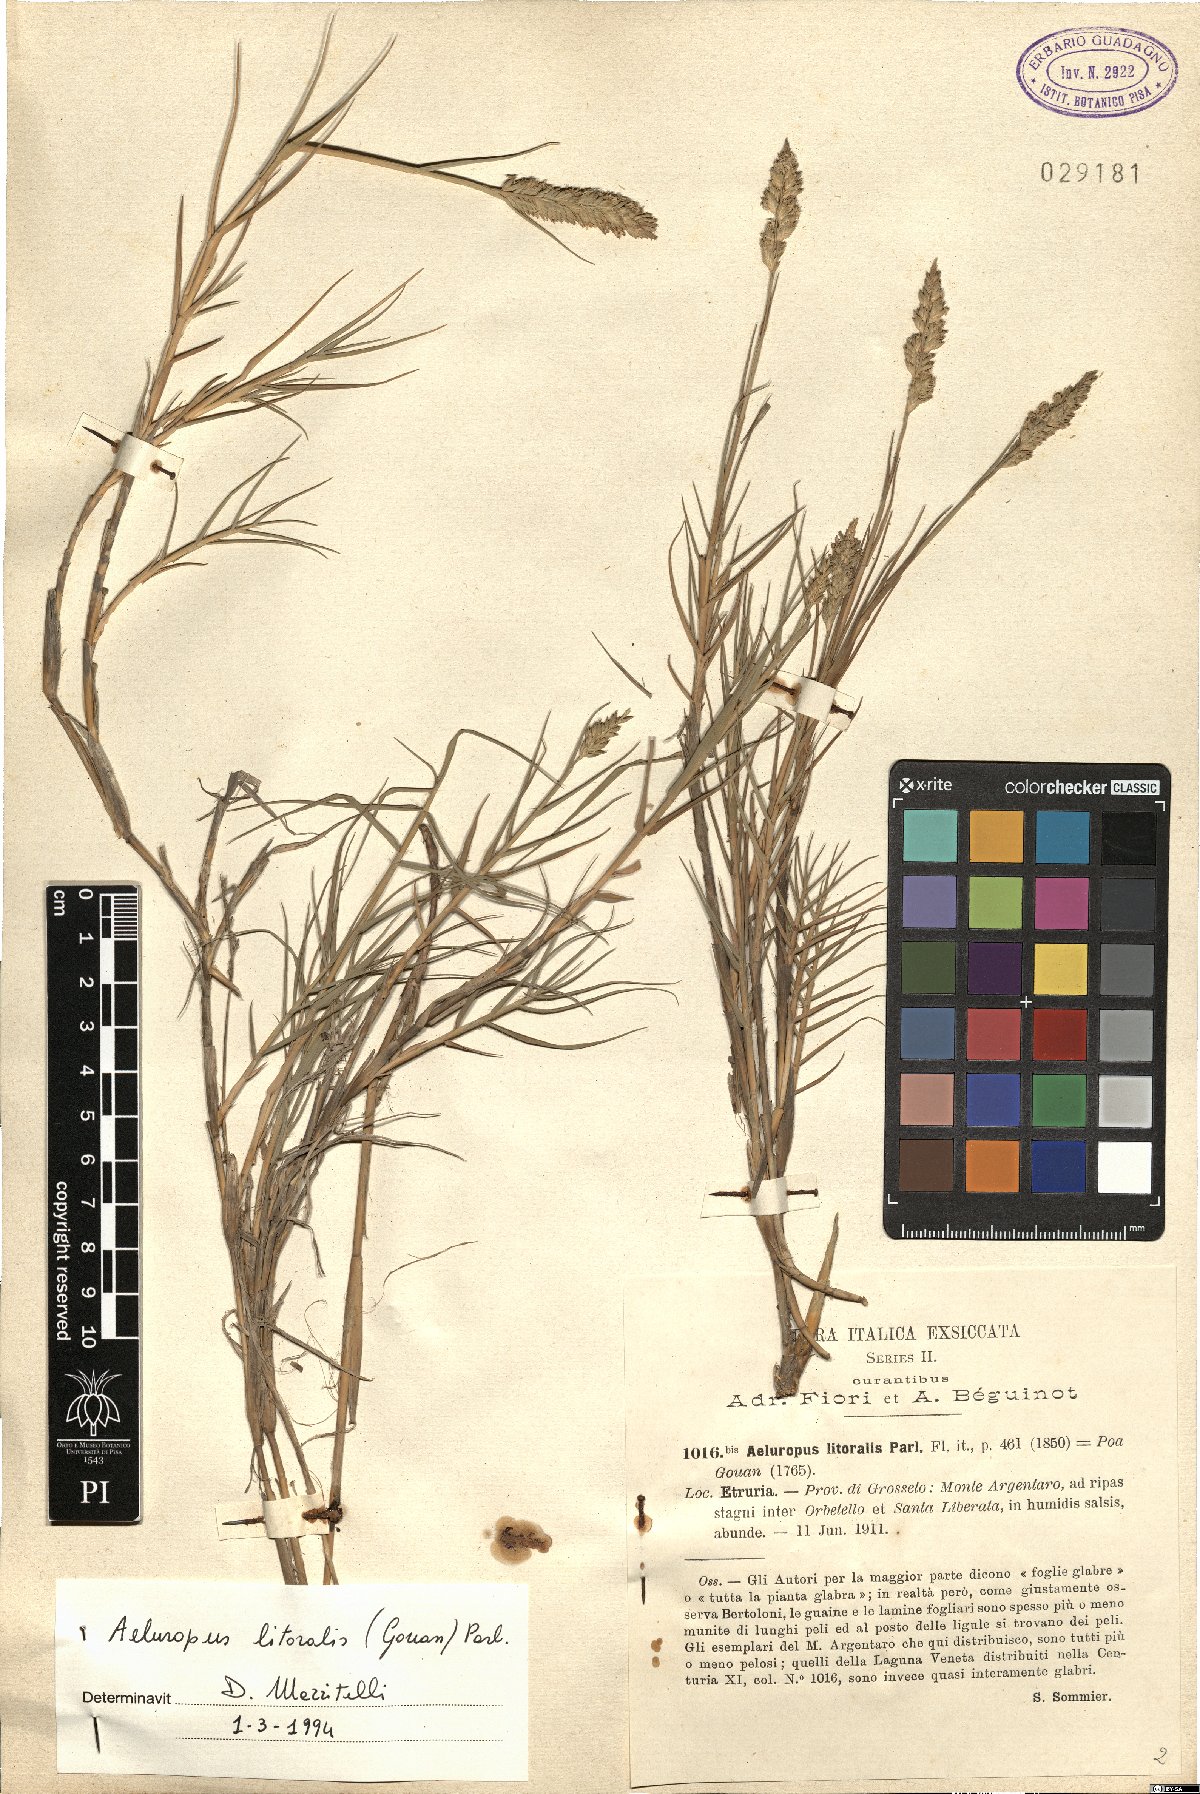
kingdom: Plantae
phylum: Tracheophyta
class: Liliopsida
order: Poales
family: Poaceae
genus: Aeluropus
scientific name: Aeluropus littoralis
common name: Indian walnut
